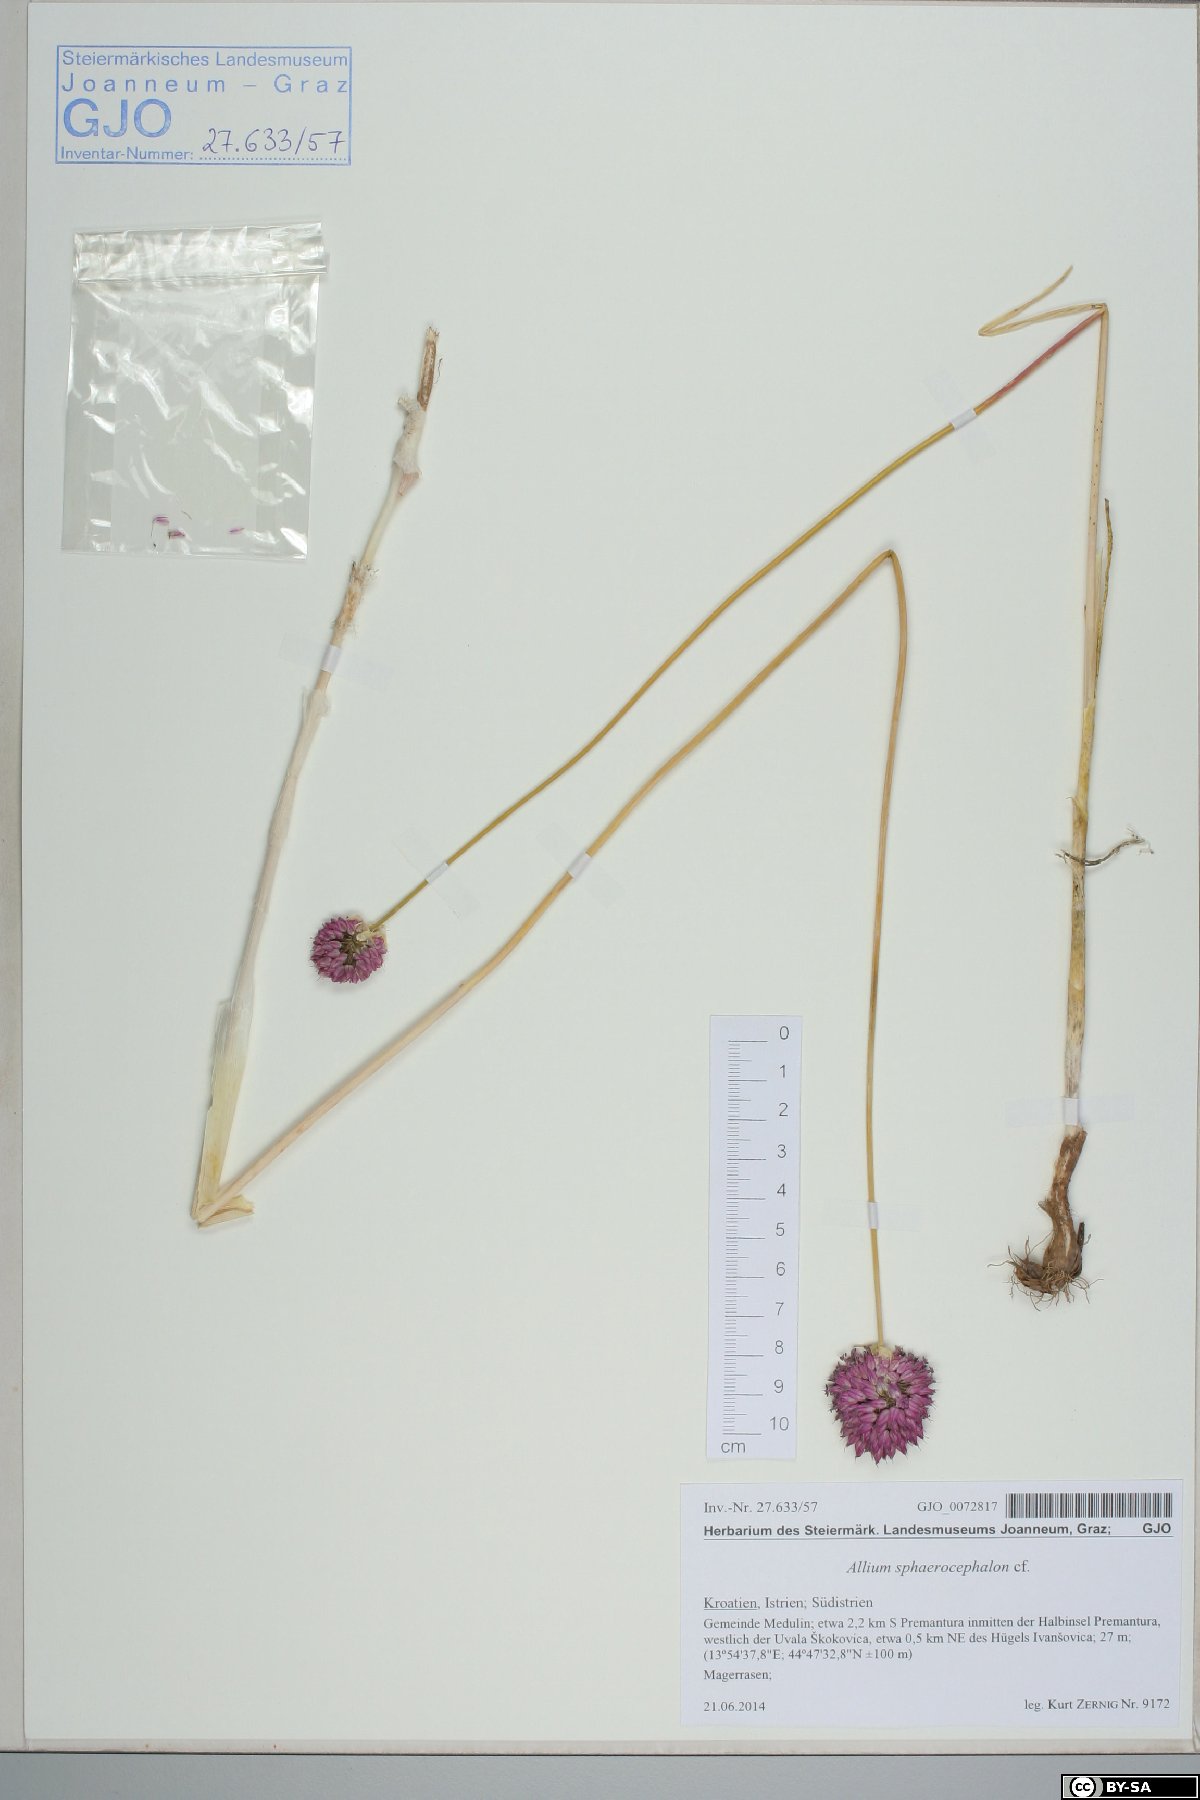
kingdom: Plantae
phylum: Tracheophyta
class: Liliopsida
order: Asparagales
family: Amaryllidaceae
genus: Allium
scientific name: Allium sphaerocephalon
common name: Round-headed leek
